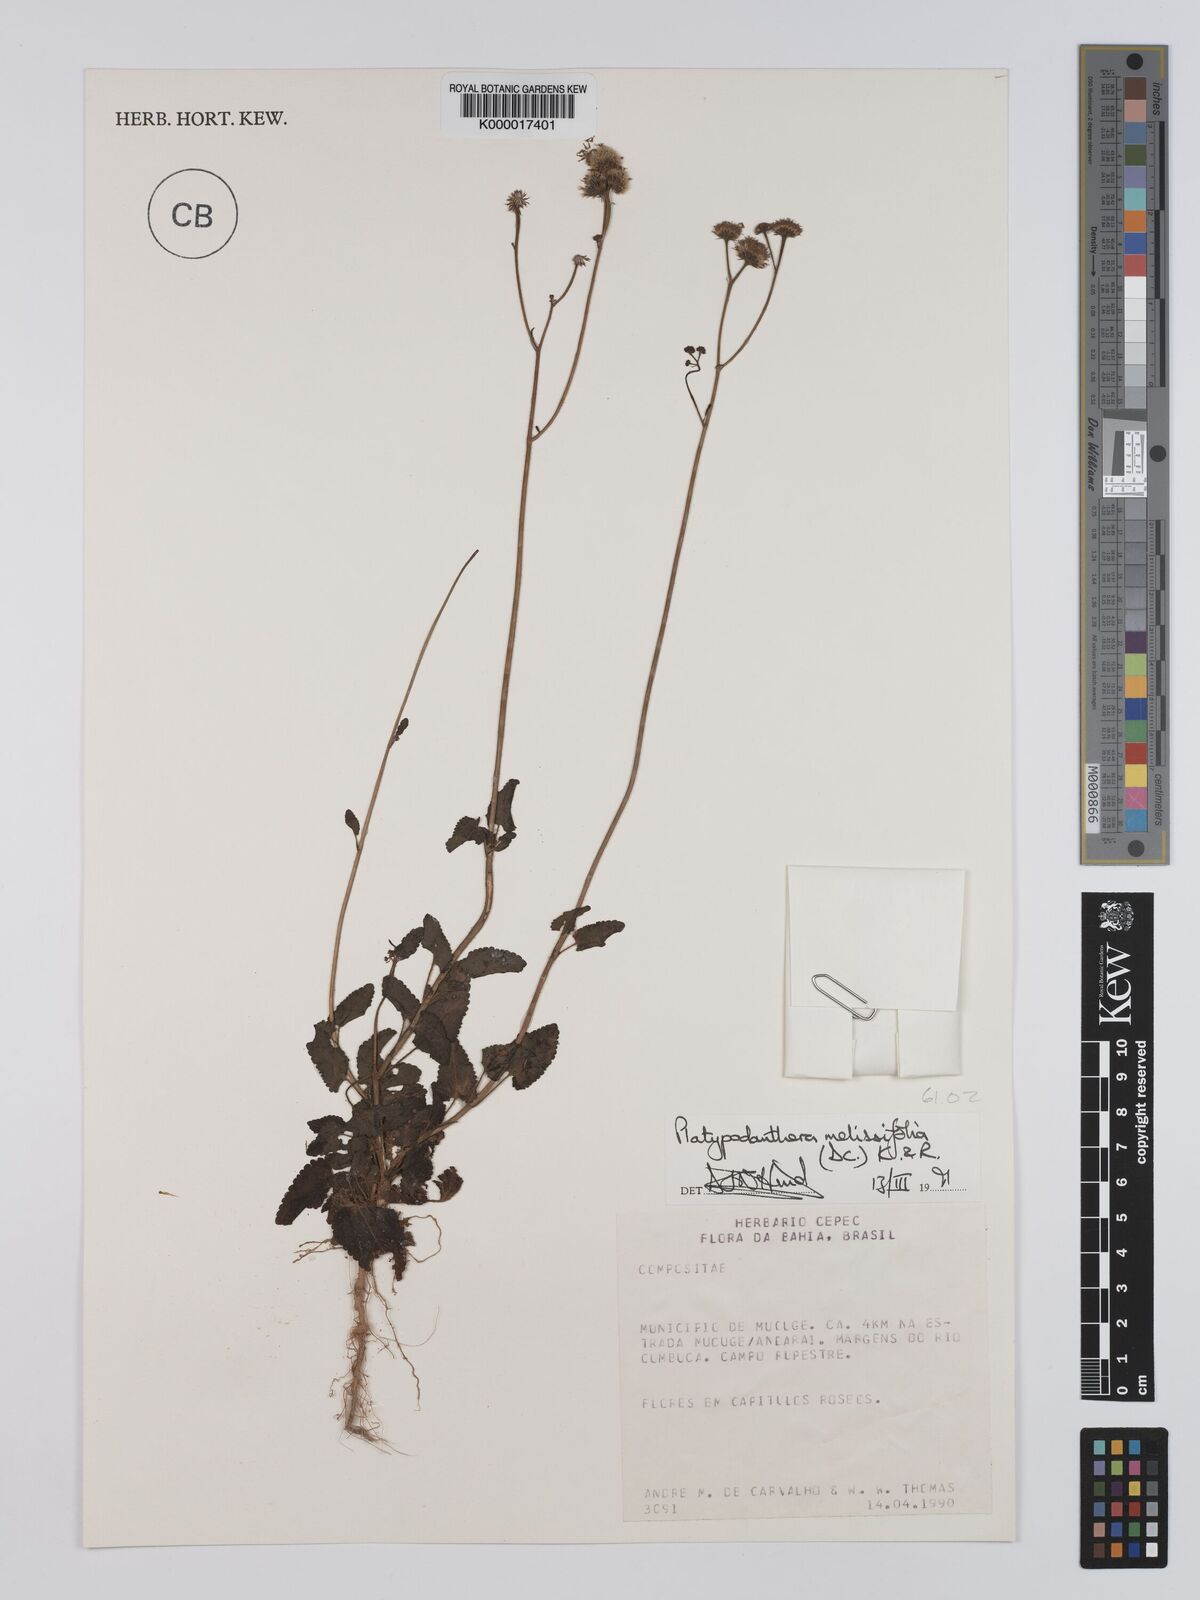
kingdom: Plantae
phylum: Tracheophyta
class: Magnoliopsida
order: Asterales
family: Asteraceae
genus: Platypodanthera
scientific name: Platypodanthera melissifolia
